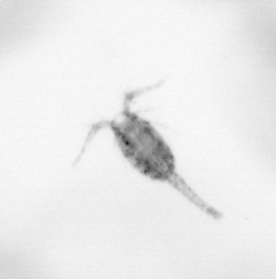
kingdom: Animalia
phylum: Arthropoda
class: Copepoda
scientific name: Copepoda
